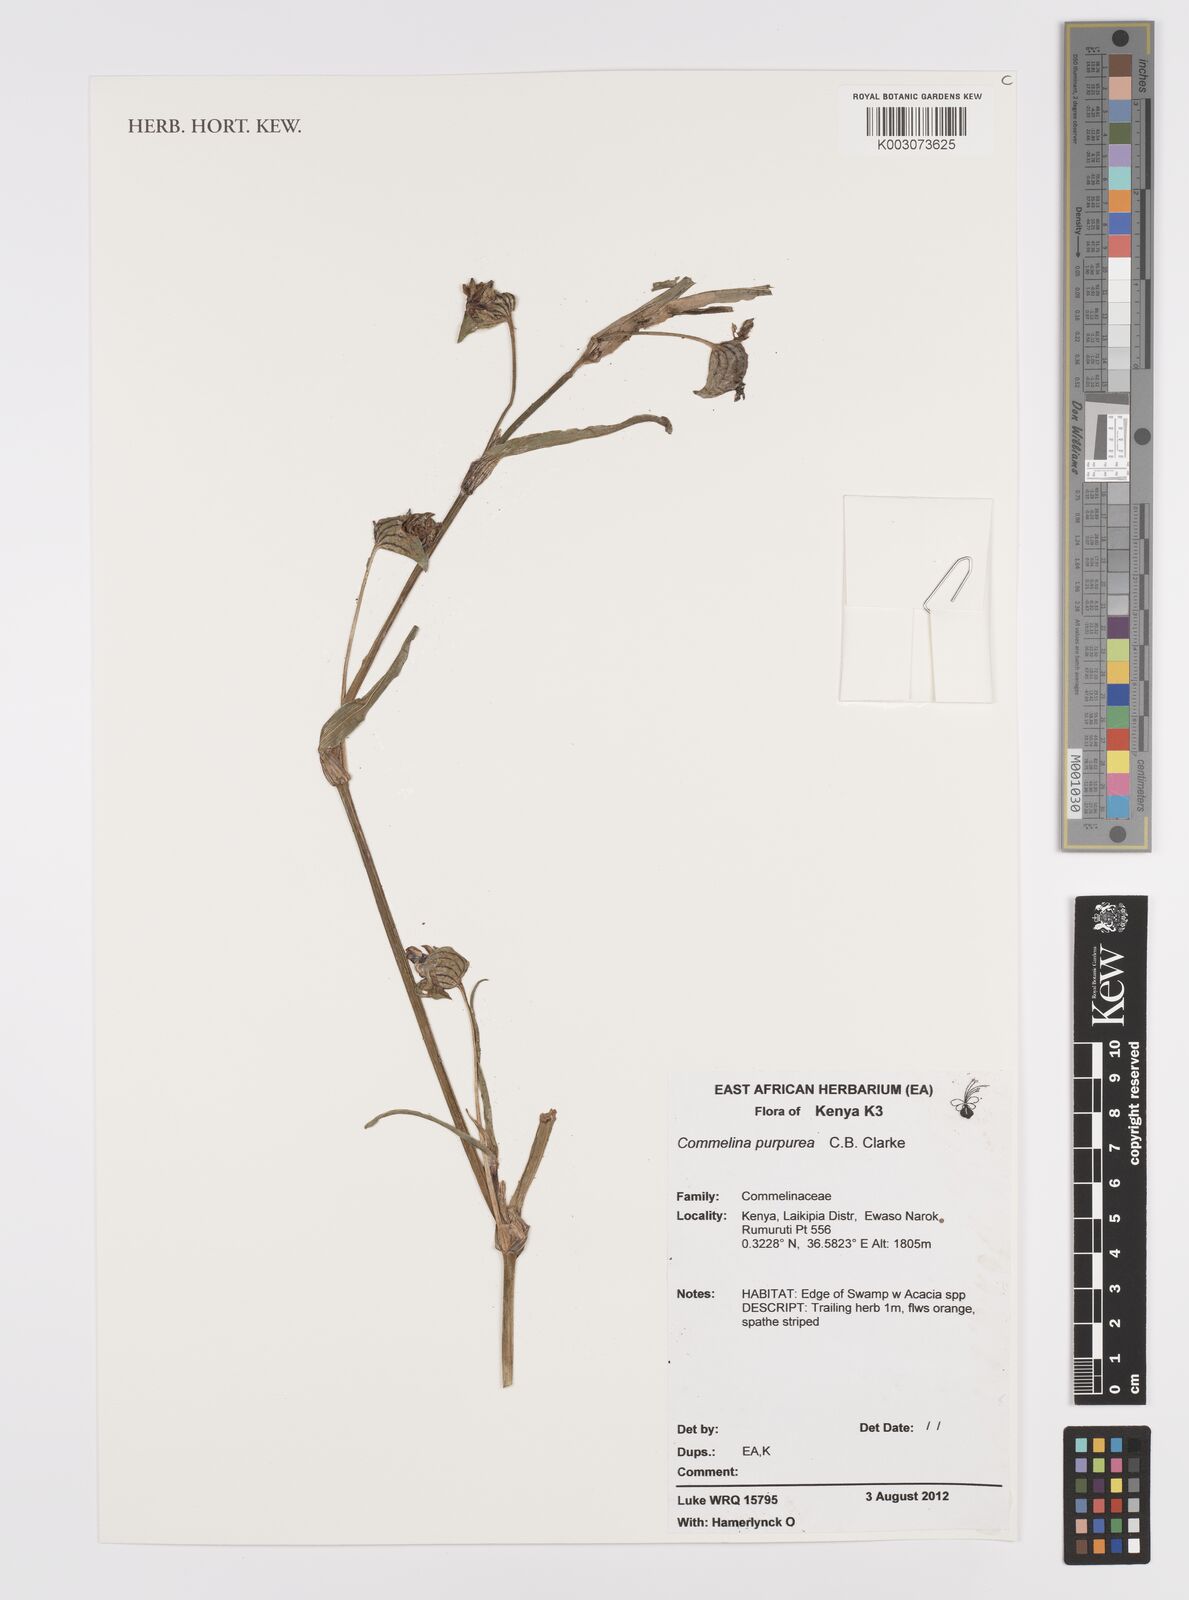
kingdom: Plantae
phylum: Tracheophyta
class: Liliopsida
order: Commelinales
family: Commelinaceae
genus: Commelina
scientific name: Commelina purpurea
